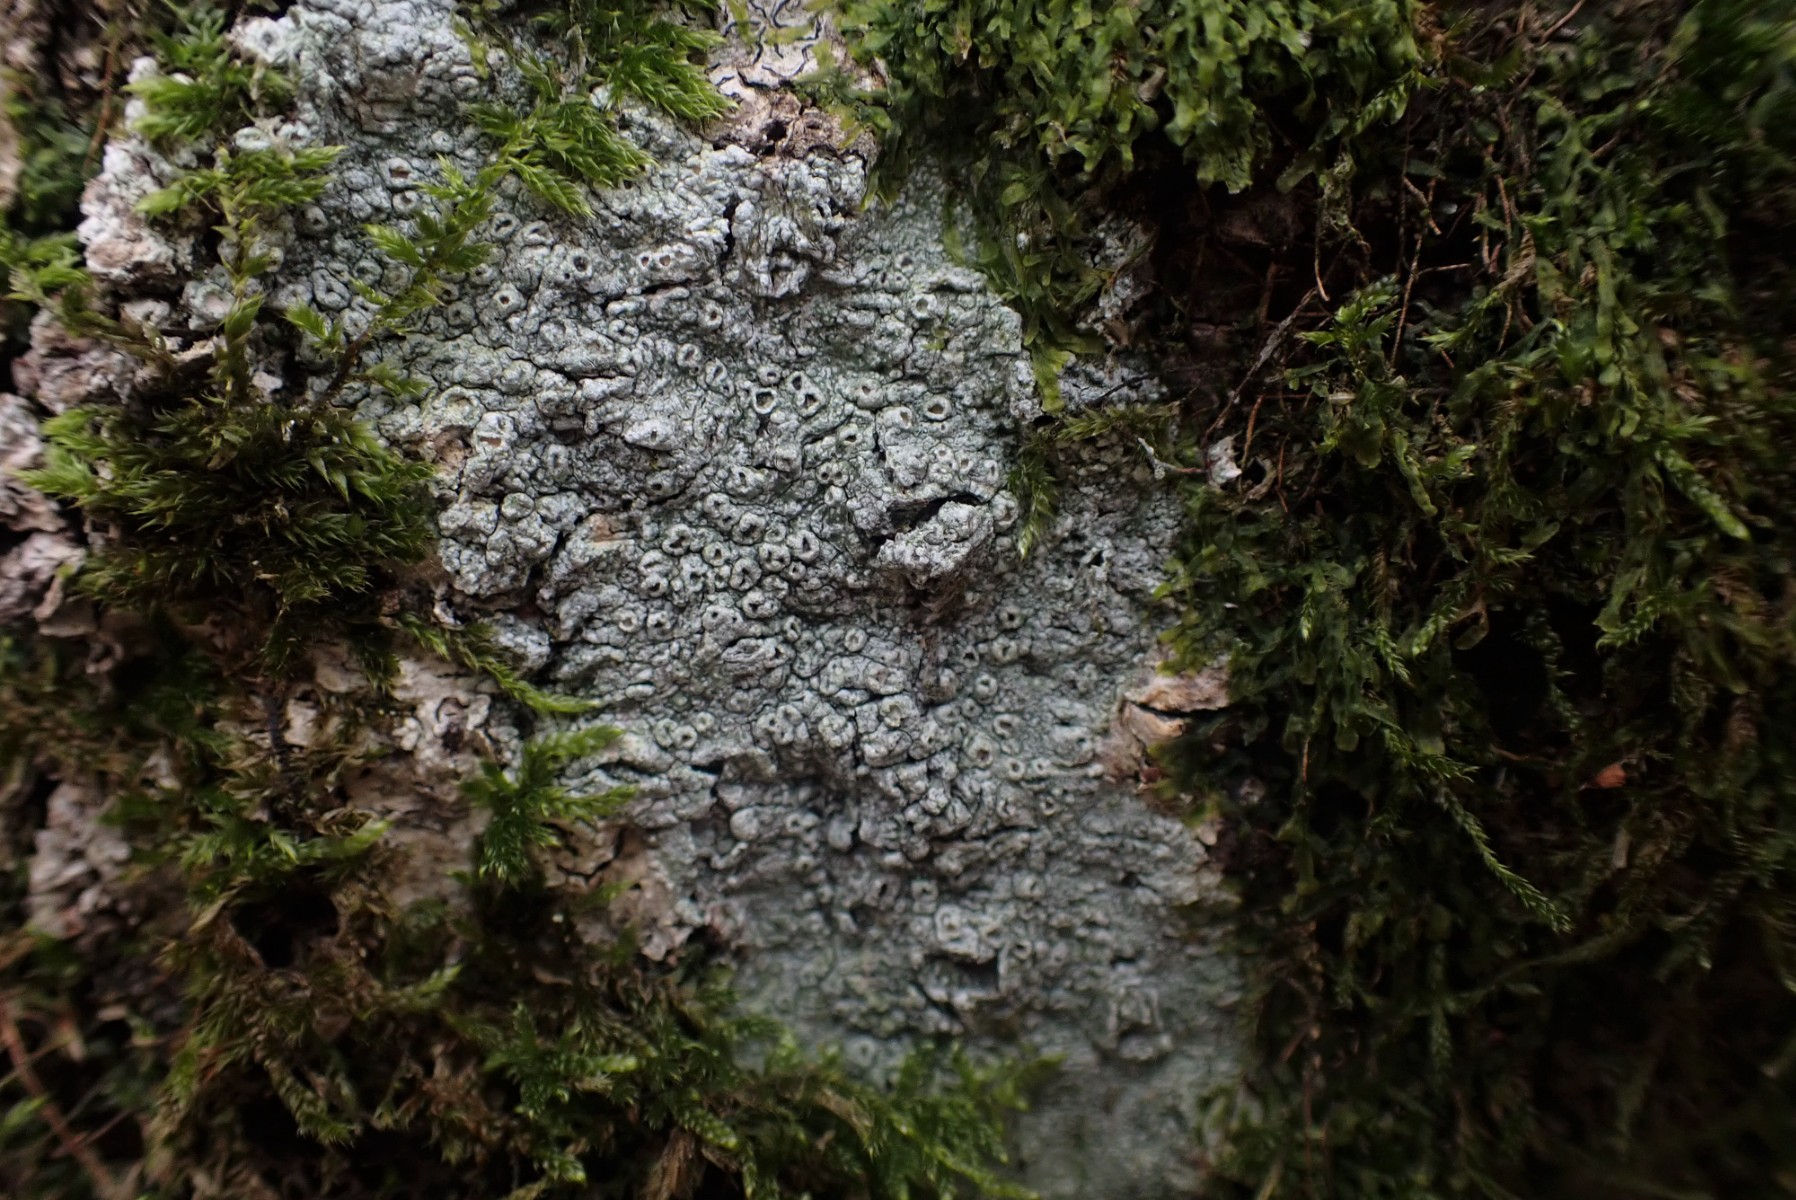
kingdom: Fungi
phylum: Ascomycota
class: Lecanoromycetes
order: Pertusariales
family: Pertusariaceae
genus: Pertusaria
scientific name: Pertusaria hymenea
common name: åben prikvortelav
